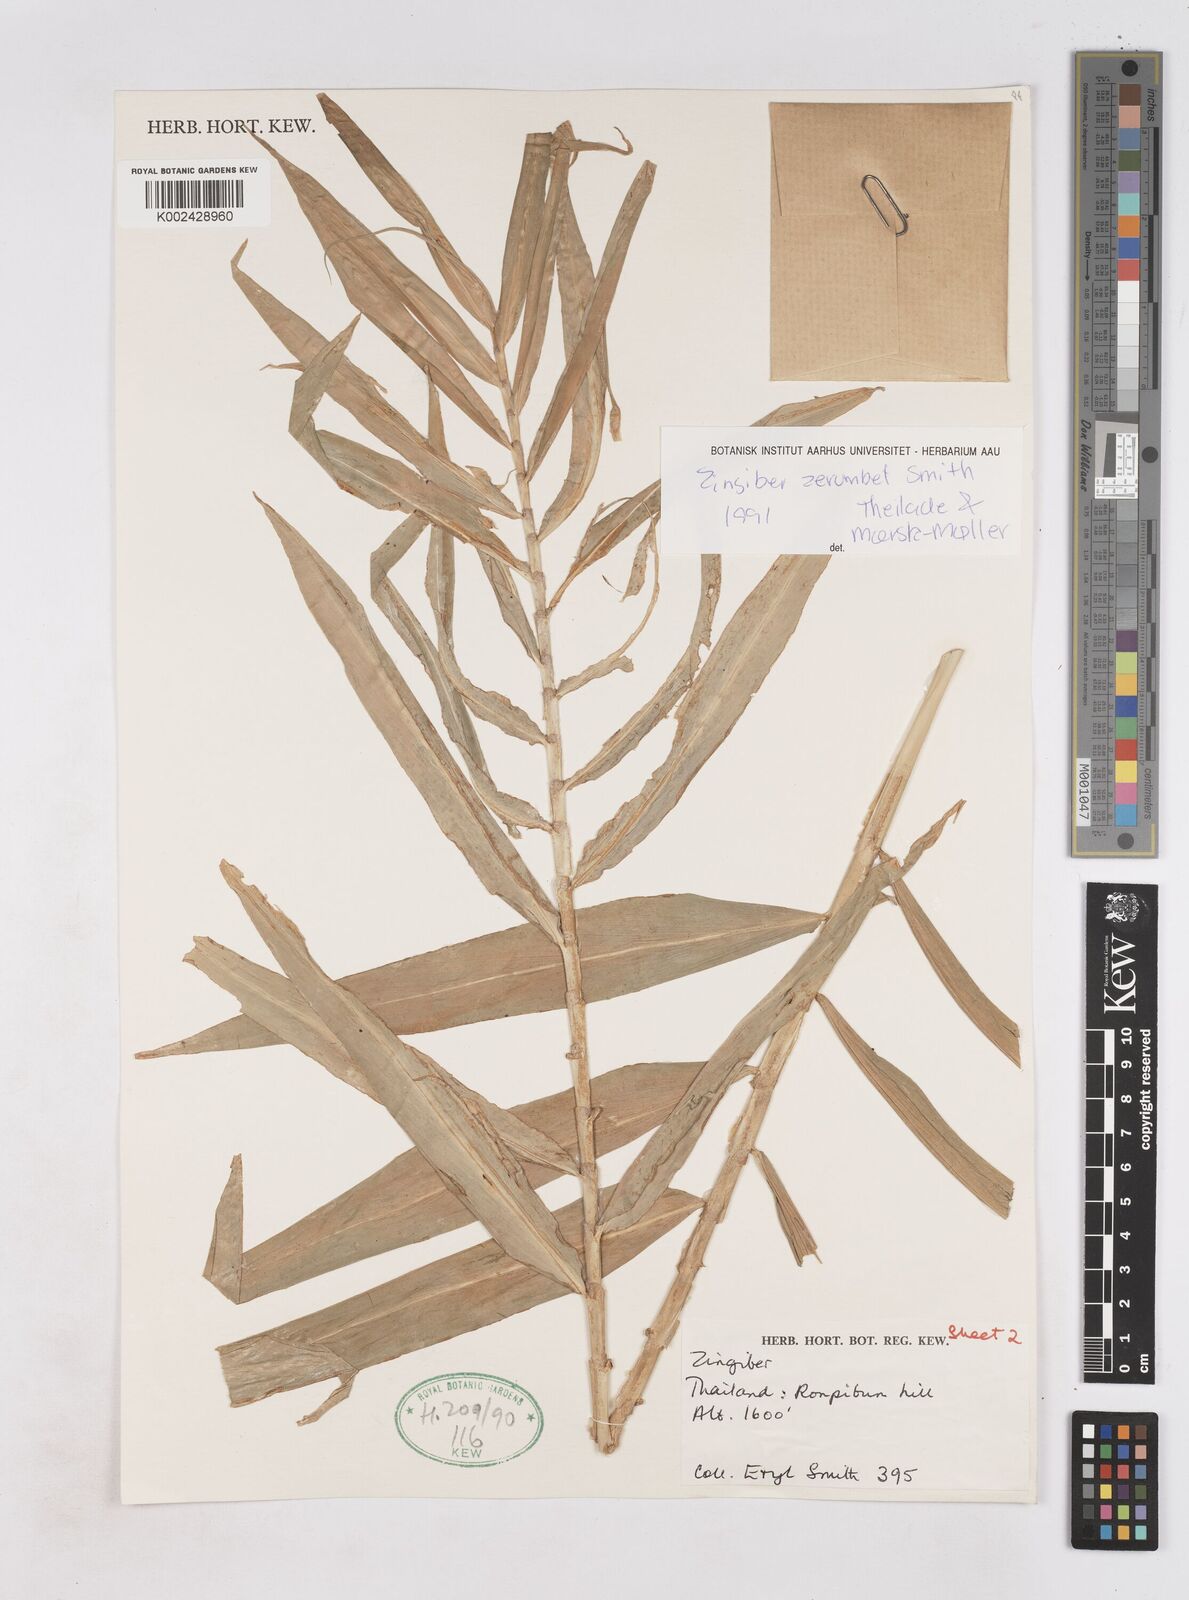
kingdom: Plantae
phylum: Tracheophyta
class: Liliopsida
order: Zingiberales
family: Zingiberaceae
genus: Zingiber
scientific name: Zingiber zerumbet
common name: Bitter ginger
